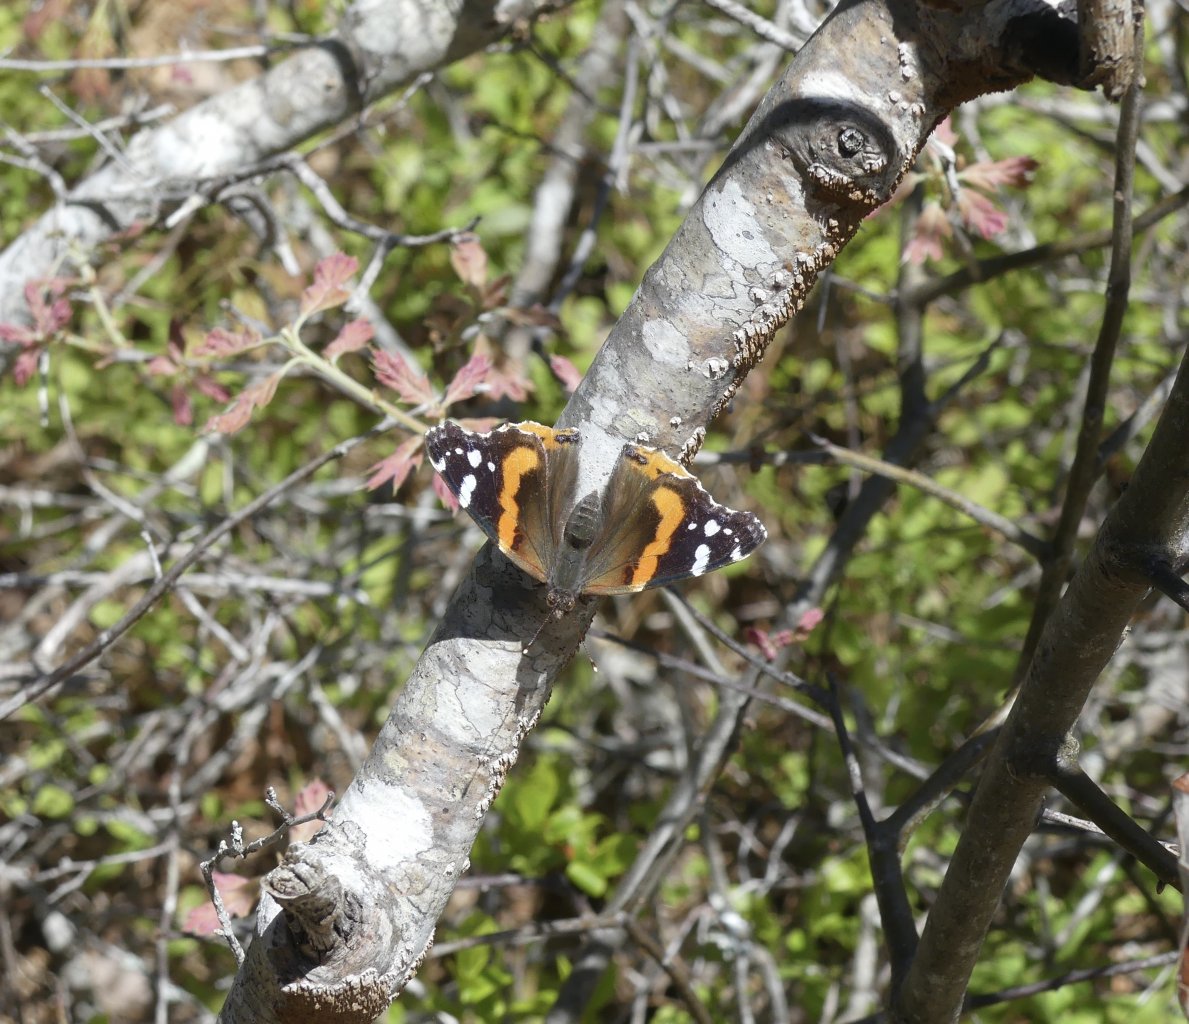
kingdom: Animalia
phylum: Arthropoda
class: Insecta
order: Lepidoptera
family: Nymphalidae
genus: Vanessa
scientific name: Vanessa atalanta
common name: Red Admiral
